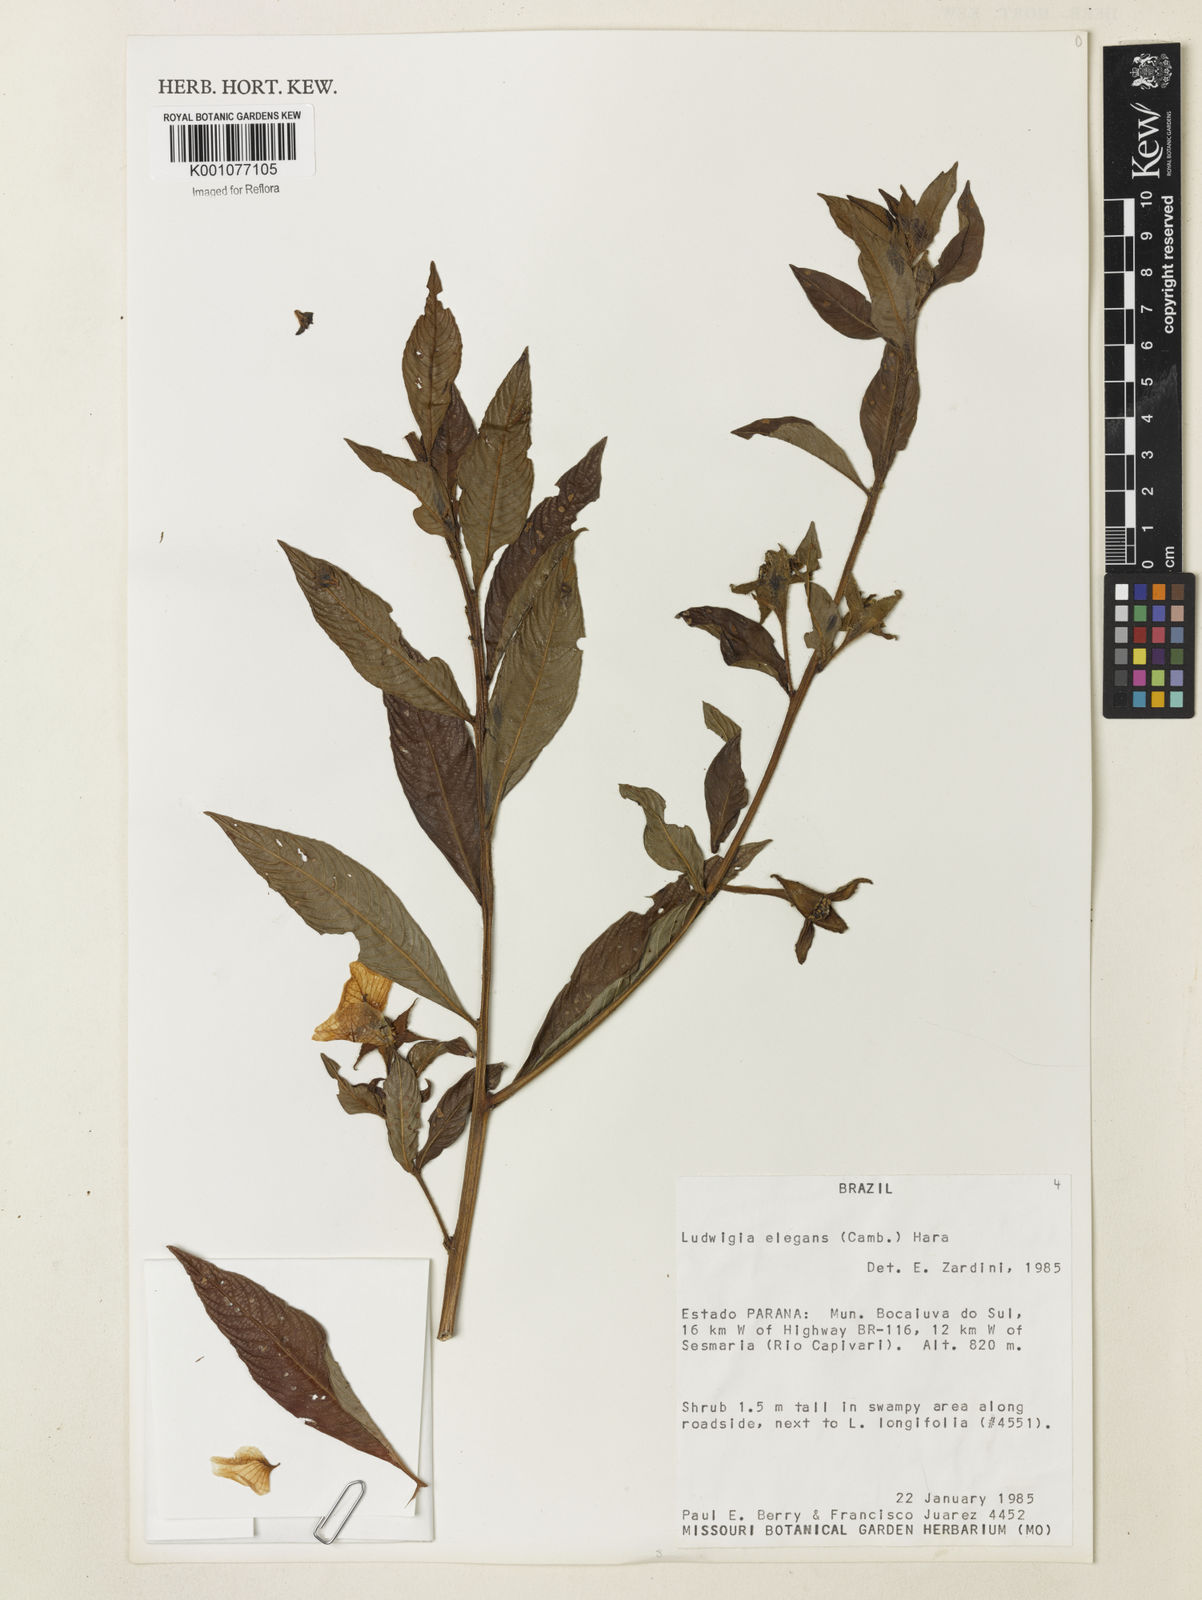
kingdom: Plantae
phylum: Tracheophyta
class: Magnoliopsida
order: Myrtales
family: Onagraceae
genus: Ludwigia
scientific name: Ludwigia elegans
